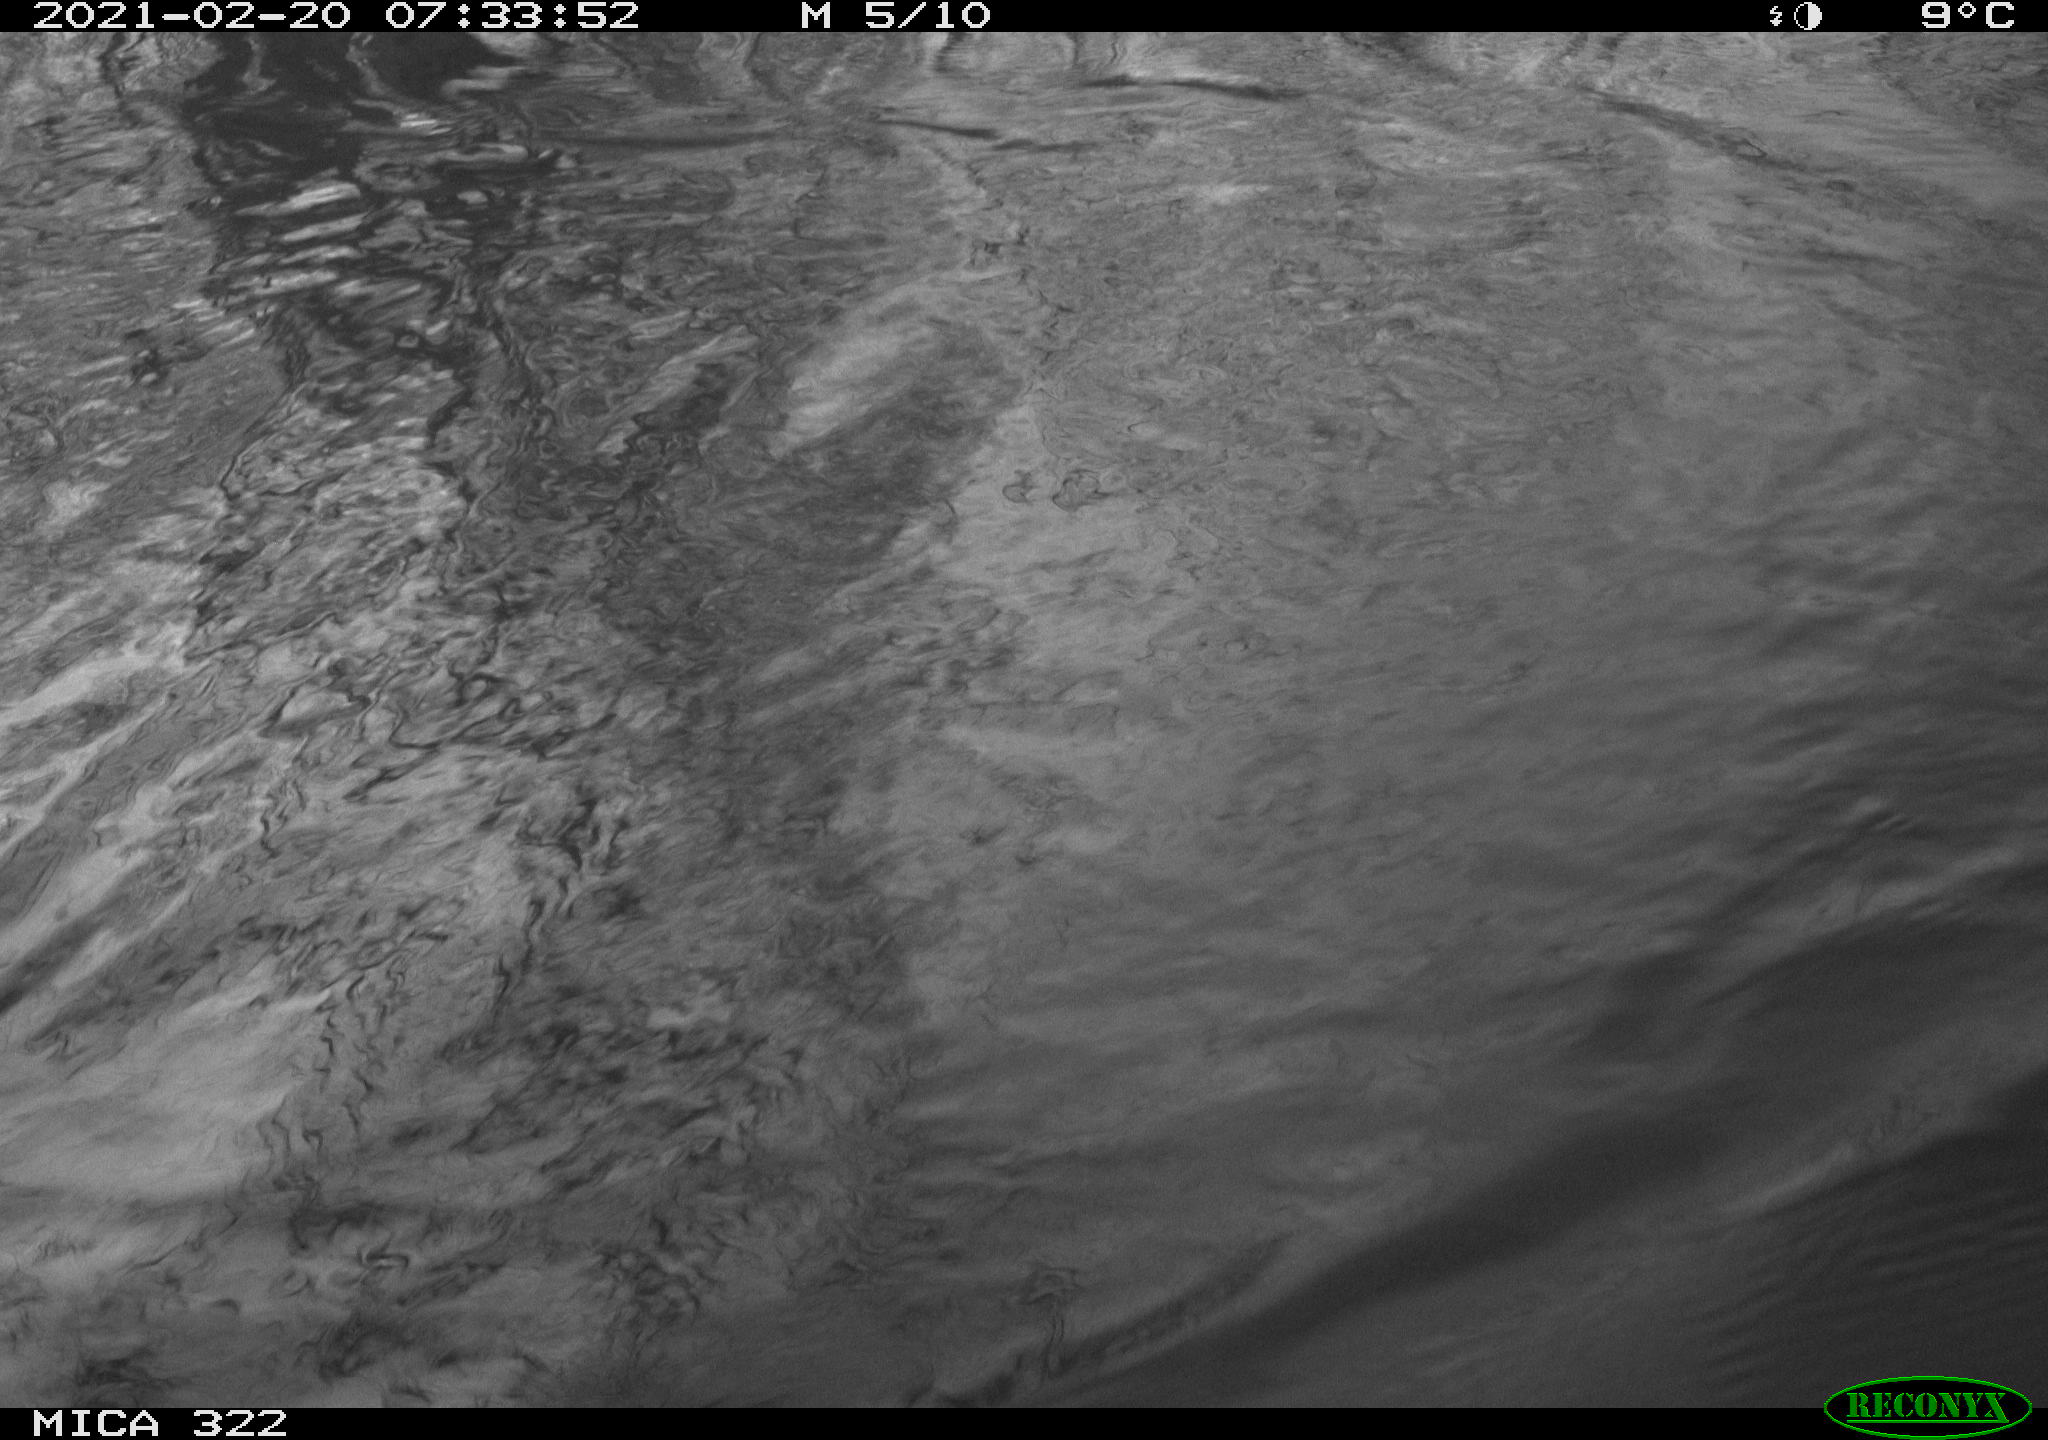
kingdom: Animalia
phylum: Chordata
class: Aves
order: Gruiformes
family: Rallidae
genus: Fulica
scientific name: Fulica atra
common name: Eurasian coot
